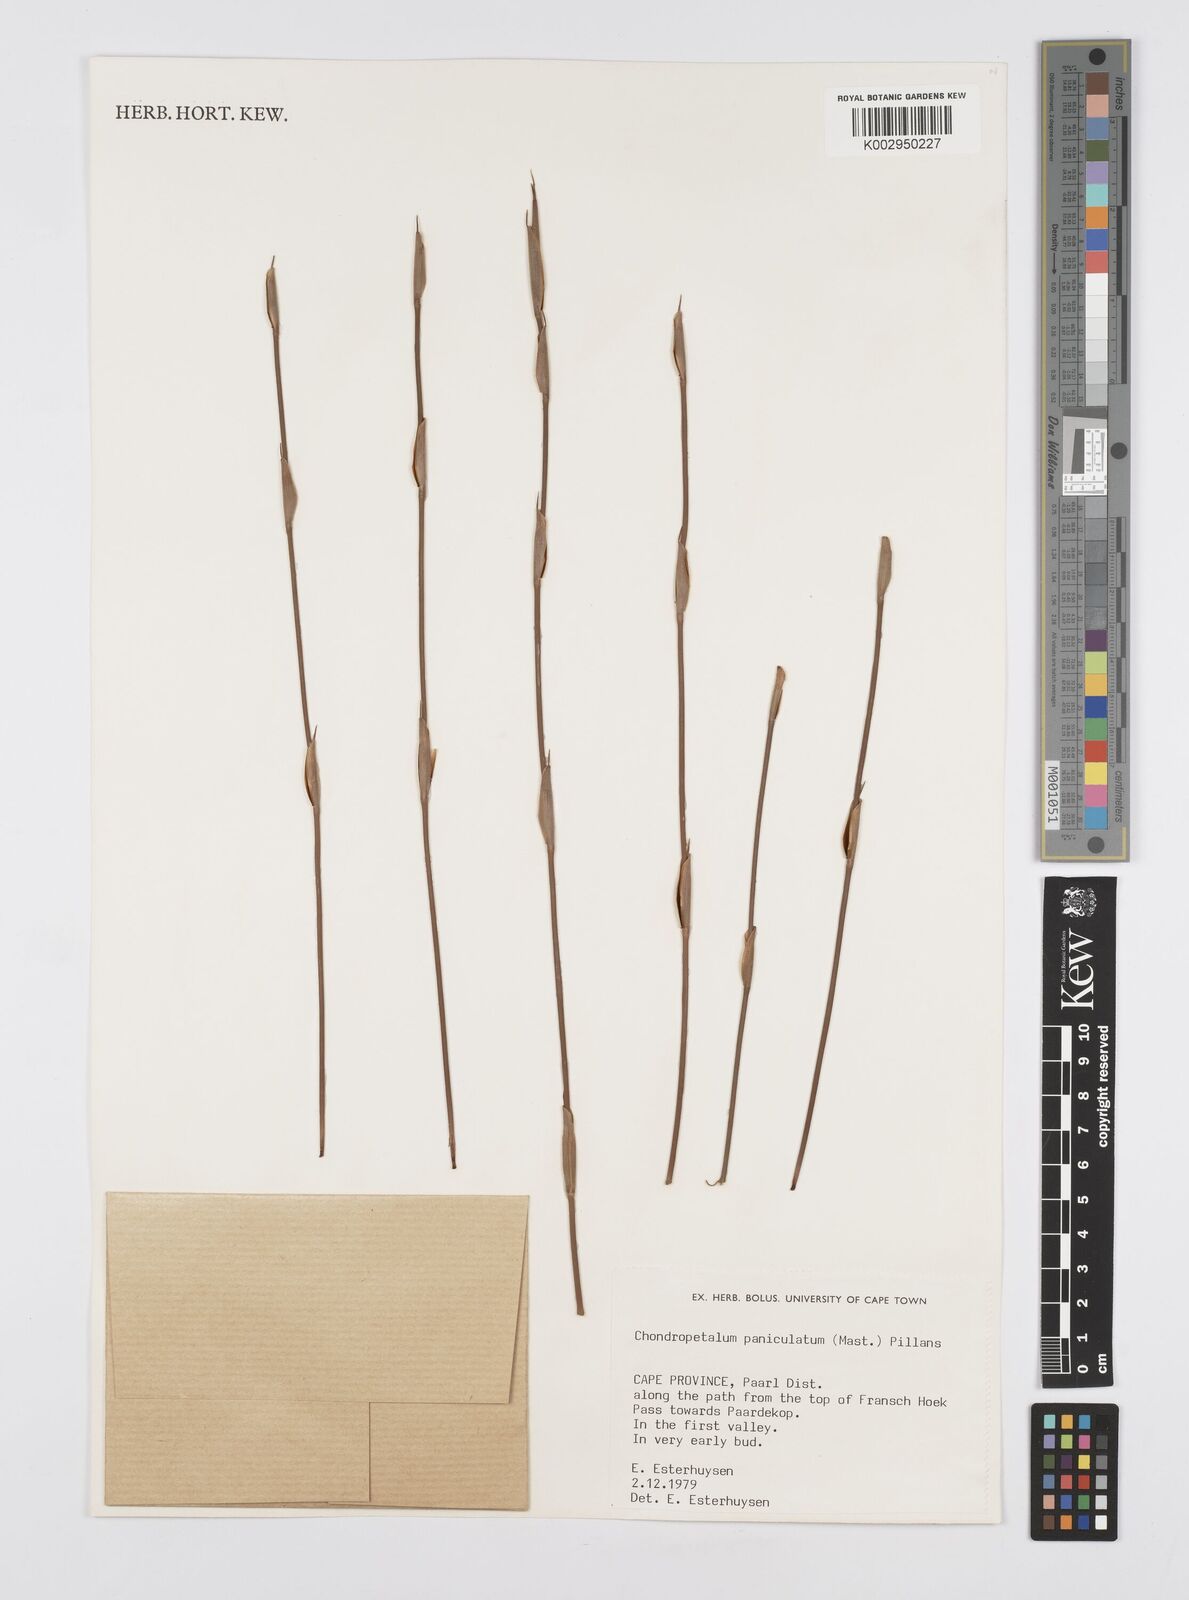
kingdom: Plantae
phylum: Tracheophyta
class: Liliopsida
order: Poales
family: Restionaceae
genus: Askidiosperma
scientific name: Askidiosperma paniculatum
